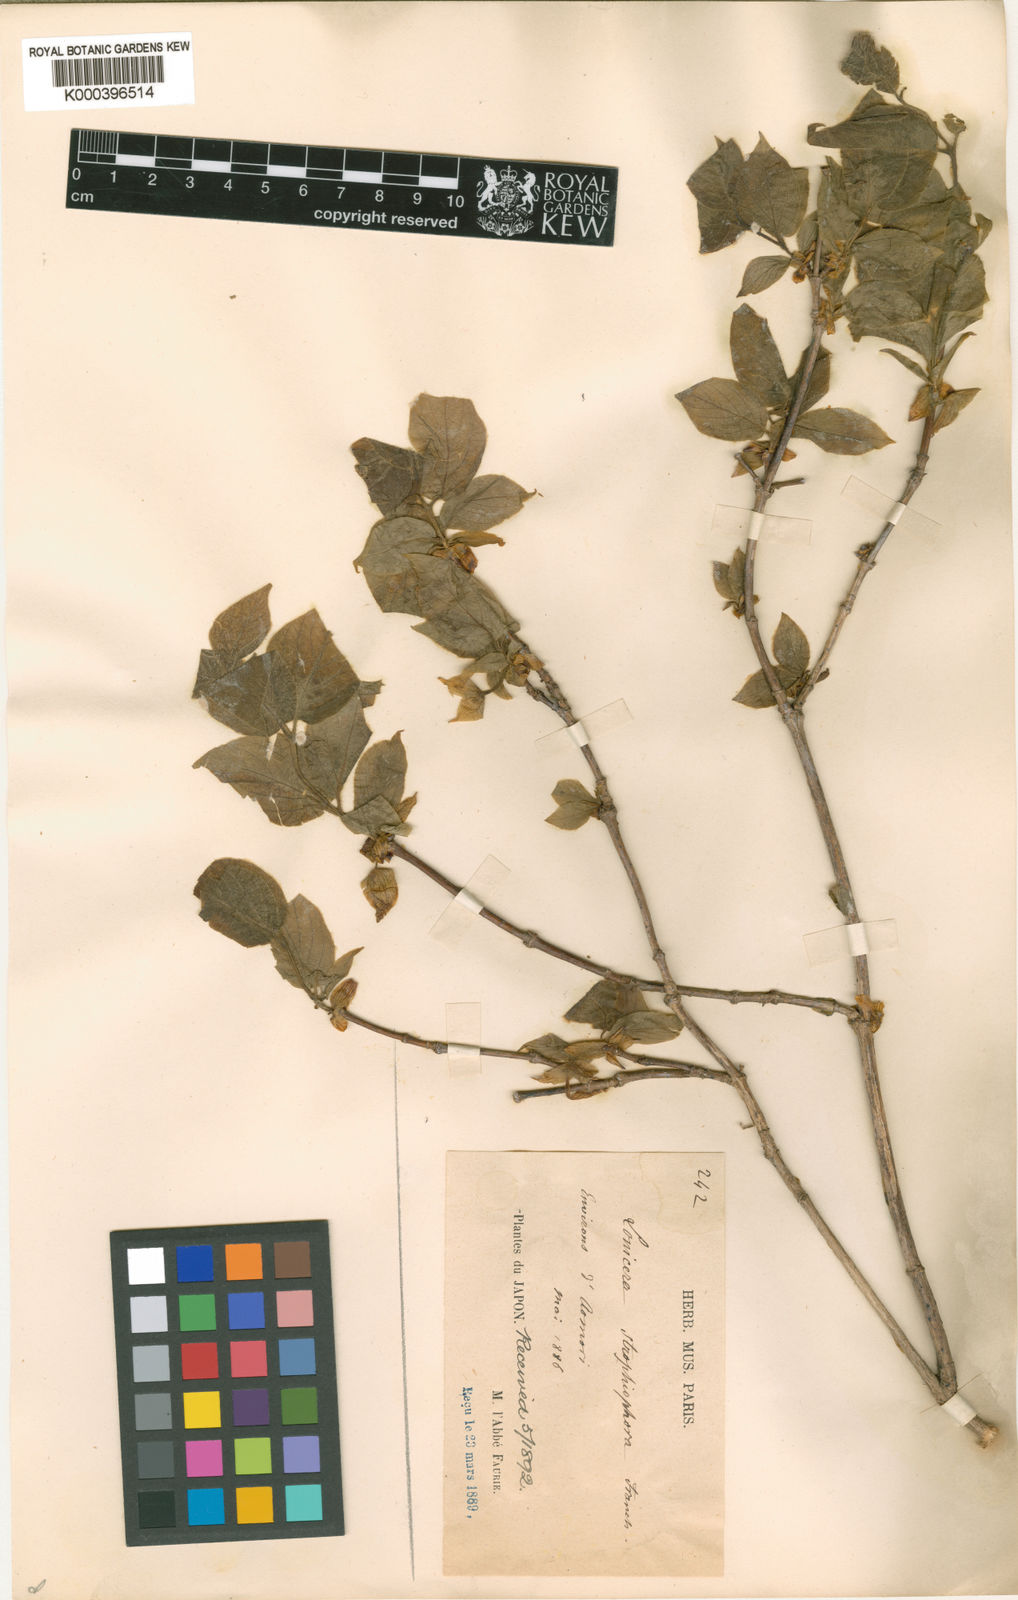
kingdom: Plantae
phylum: Tracheophyta
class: Magnoliopsida
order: Dipsacales
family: Caprifoliaceae
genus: Lonicera
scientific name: Lonicera strophiophora
